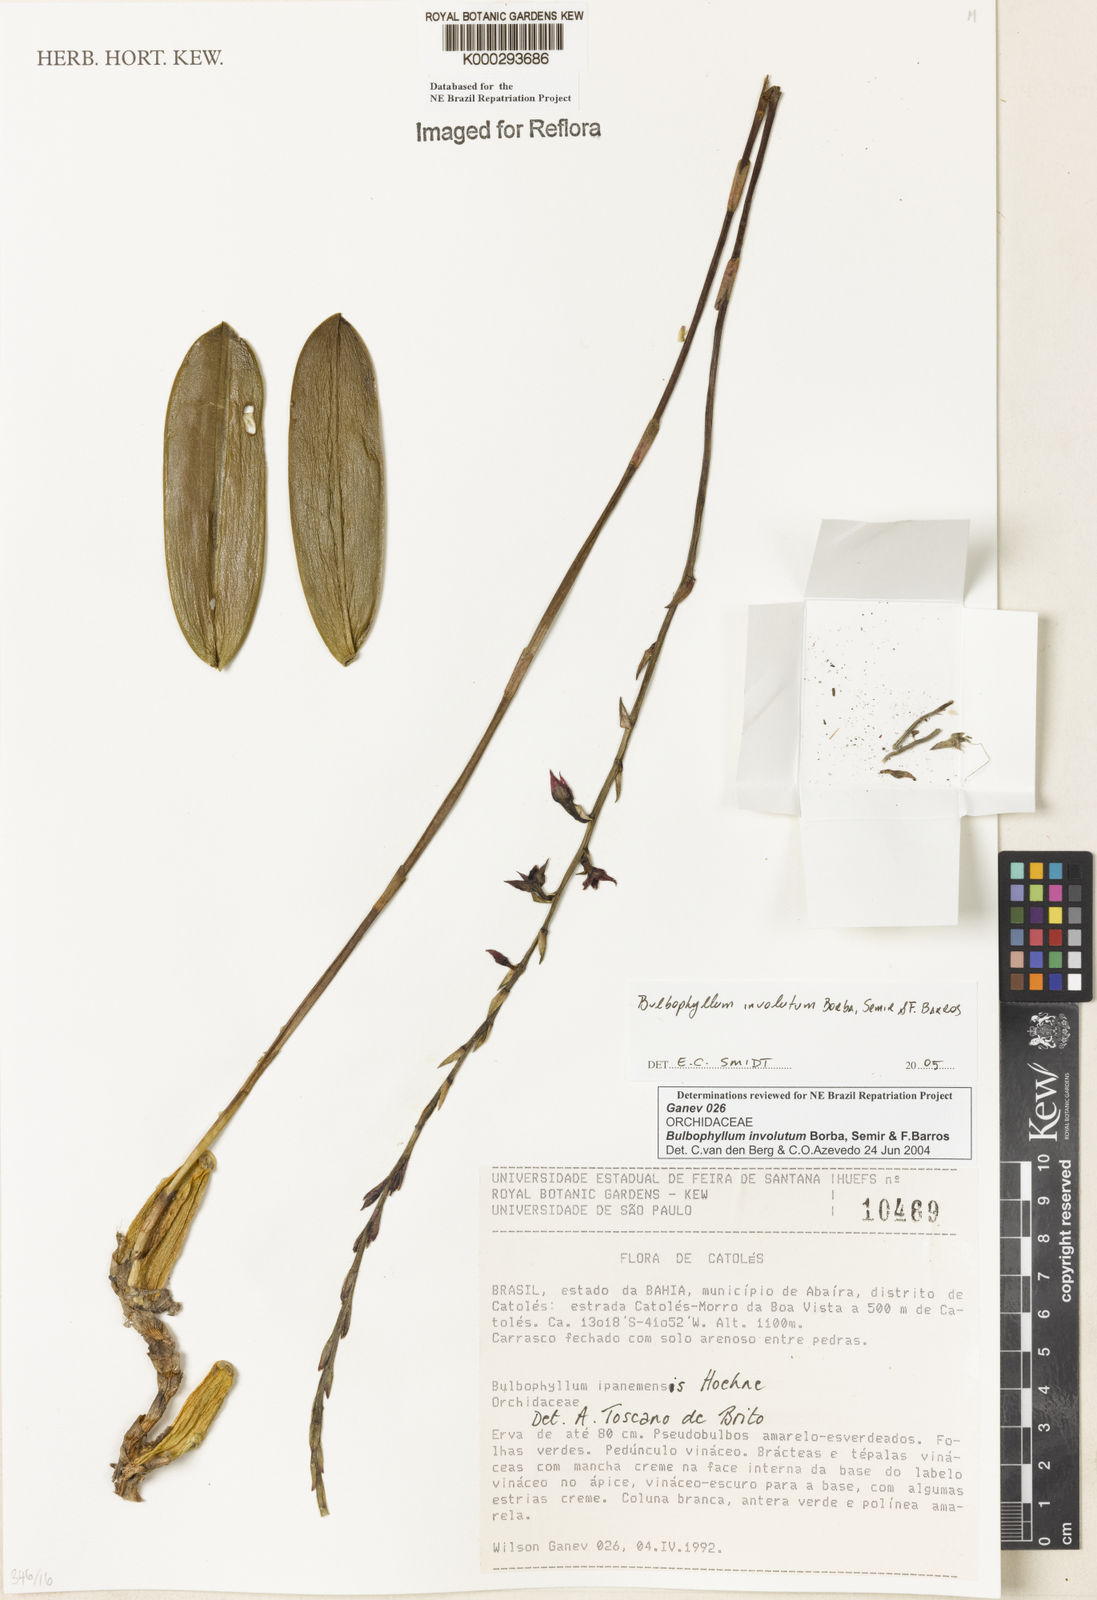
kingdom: Plantae
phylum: Tracheophyta
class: Liliopsida
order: Asparagales
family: Orchidaceae
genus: Bulbophyllum
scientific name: Bulbophyllum involutum
